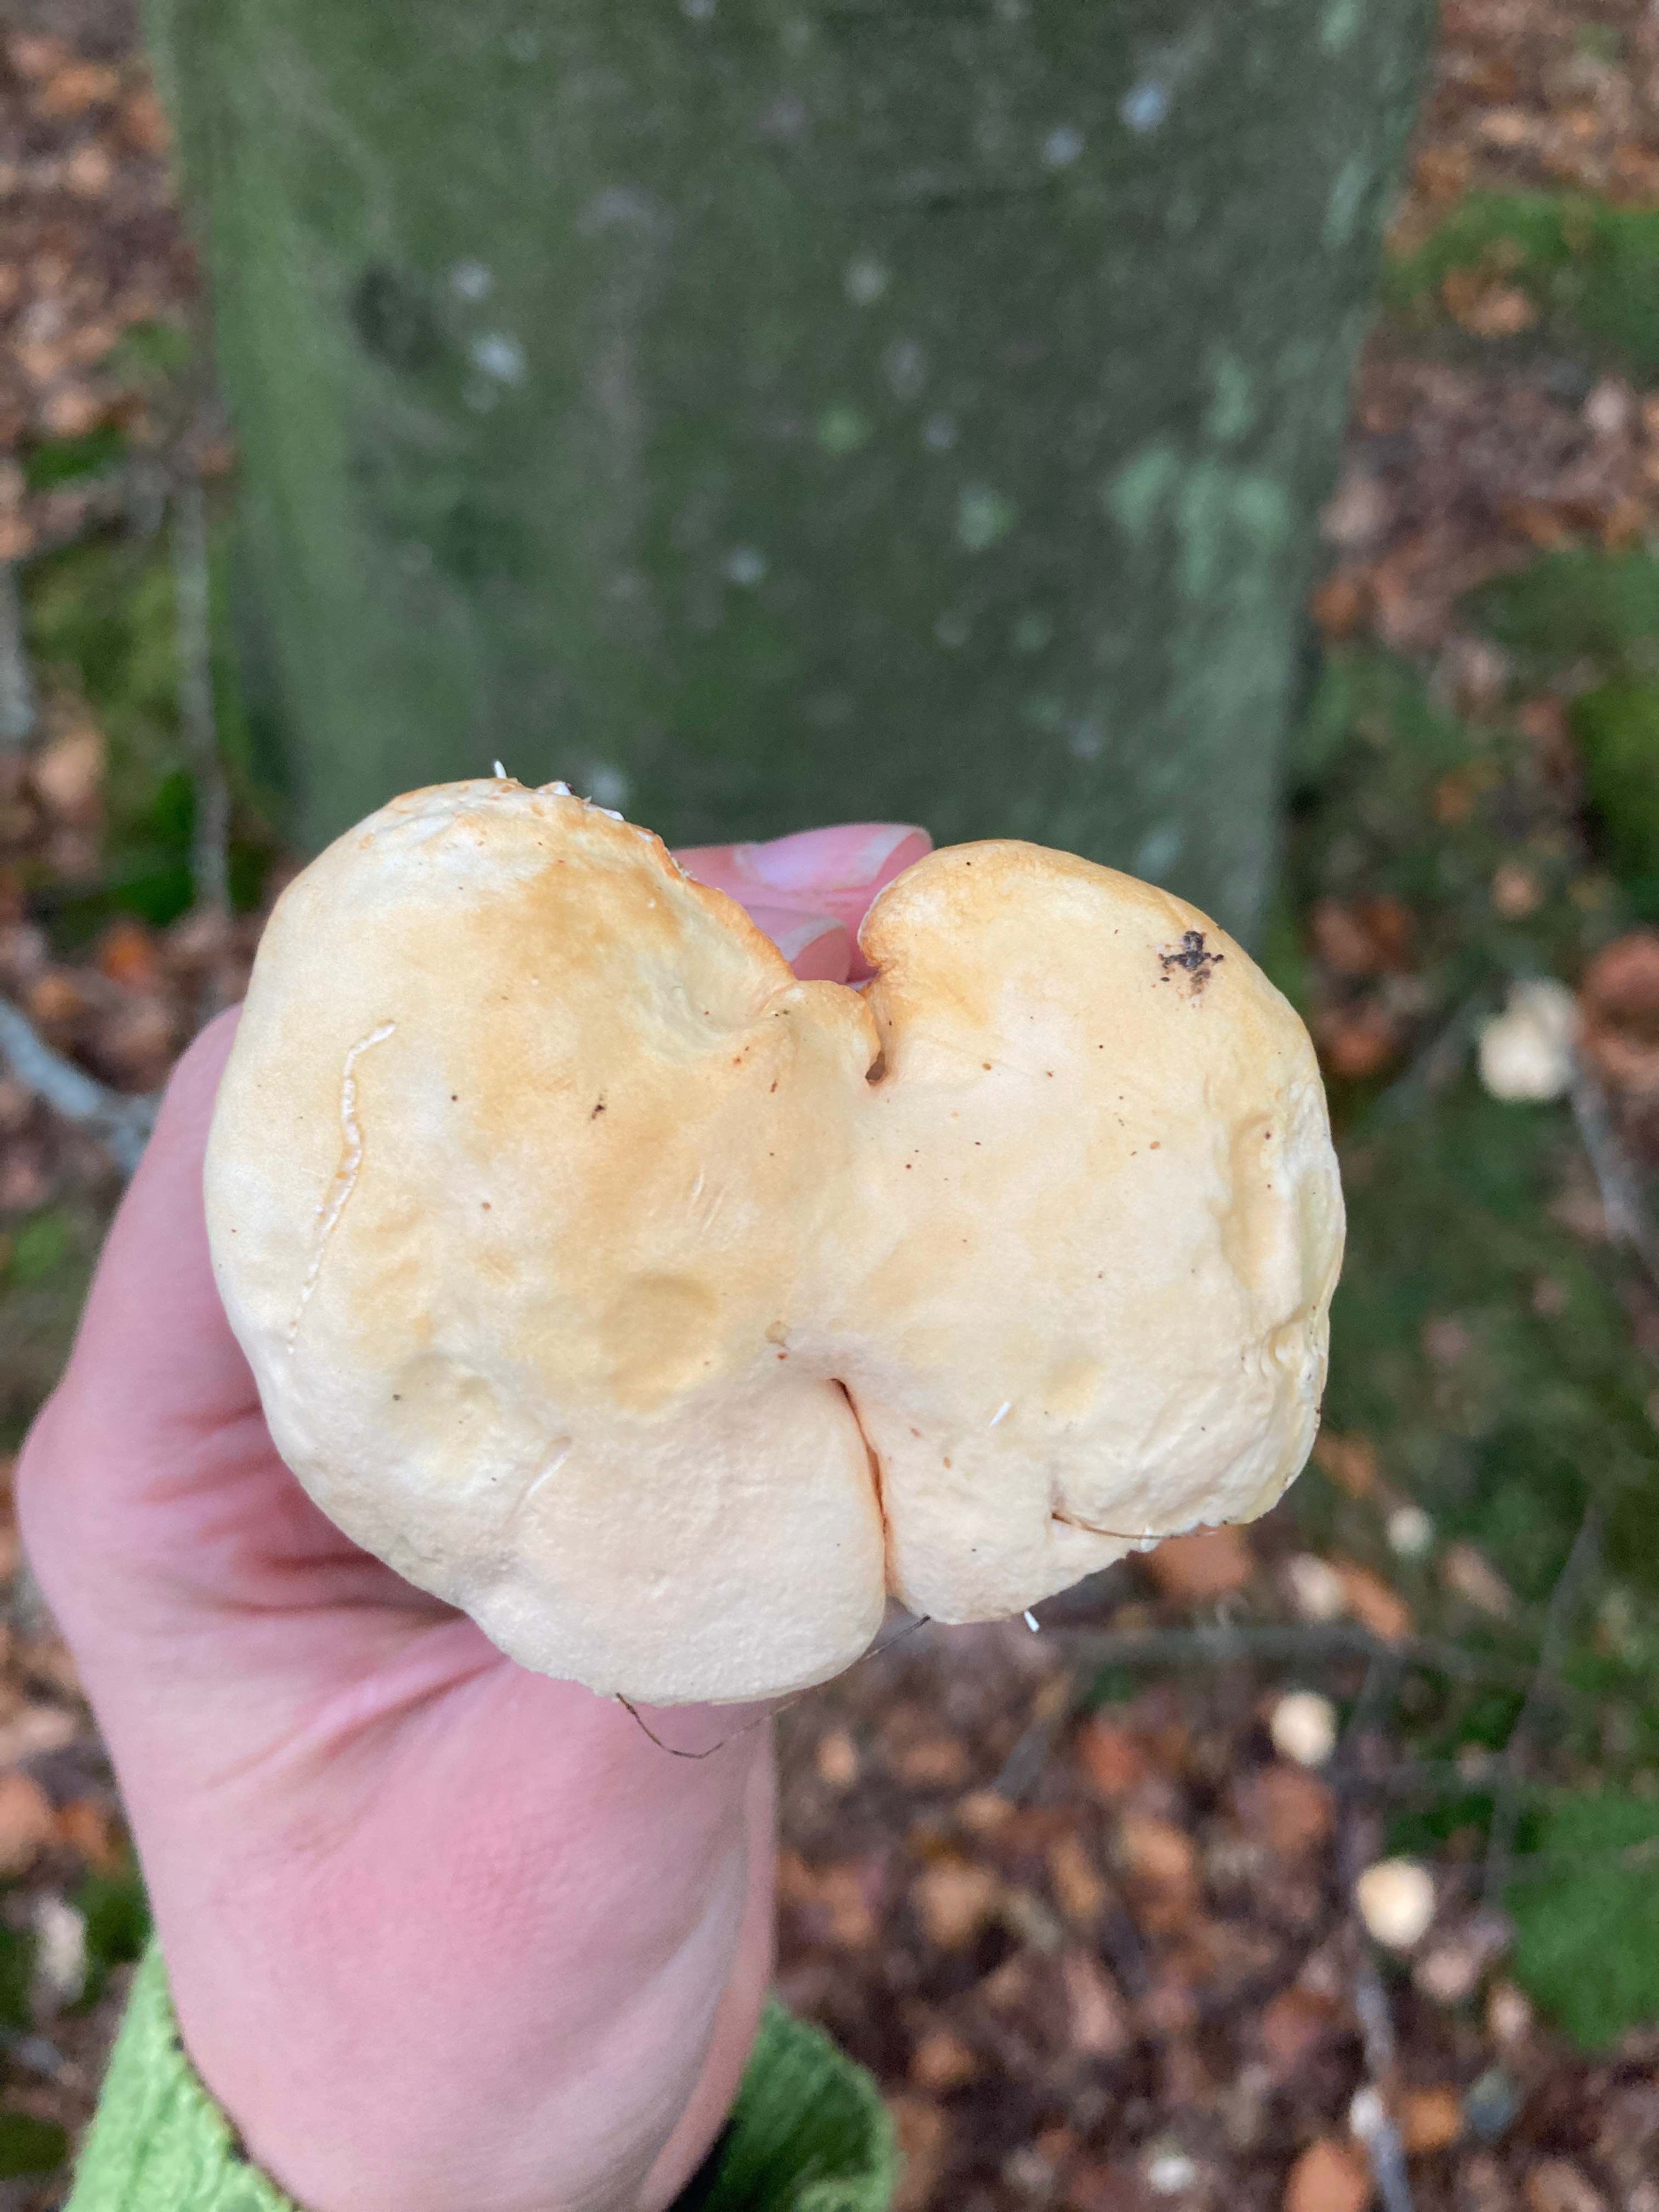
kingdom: Fungi
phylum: Basidiomycota
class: Agaricomycetes
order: Cantharellales
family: Hydnaceae
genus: Hydnum
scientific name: Hydnum
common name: pigsvamp
